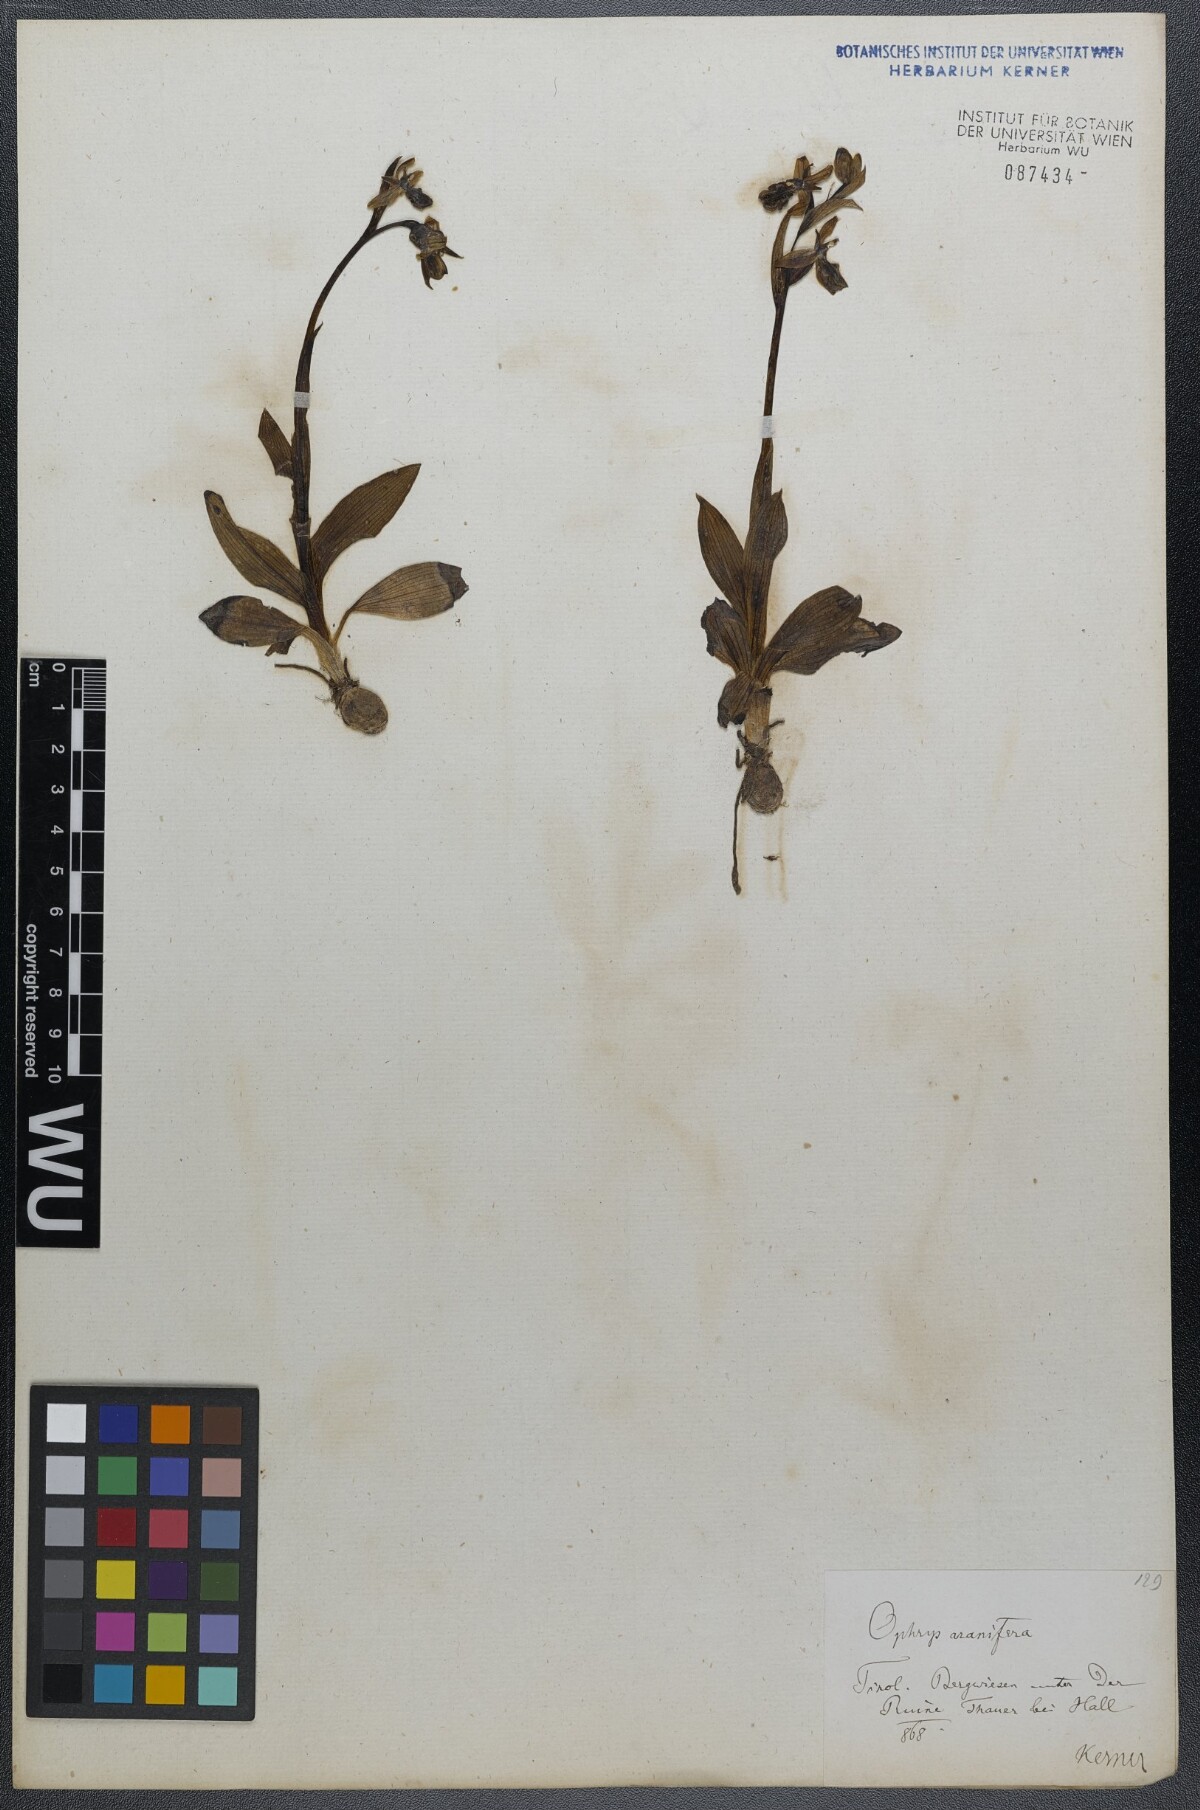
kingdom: Plantae
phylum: Tracheophyta
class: Liliopsida
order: Asparagales
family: Orchidaceae
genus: Ophrys
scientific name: Ophrys sphegodes
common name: Early spider-orchid
